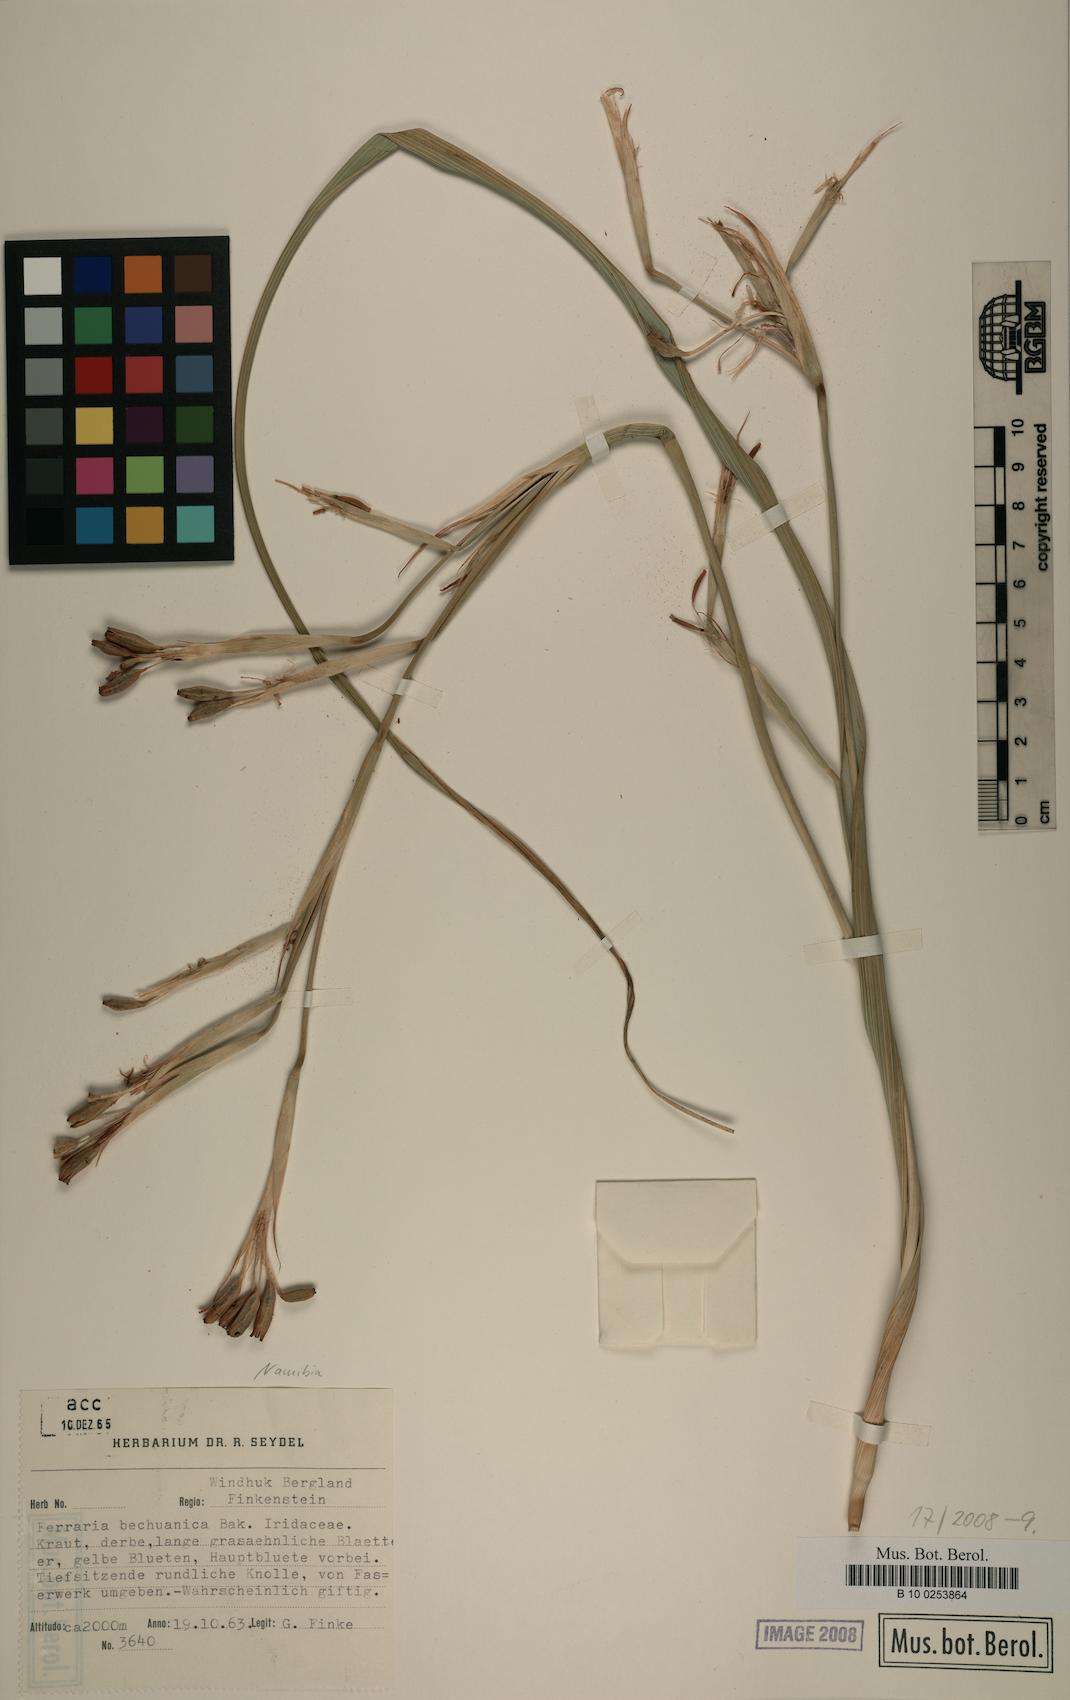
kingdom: Plantae
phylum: Tracheophyta
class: Liliopsida
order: Asparagales
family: Iridaceae
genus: Ferraria
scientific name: Ferraria glutinosa
